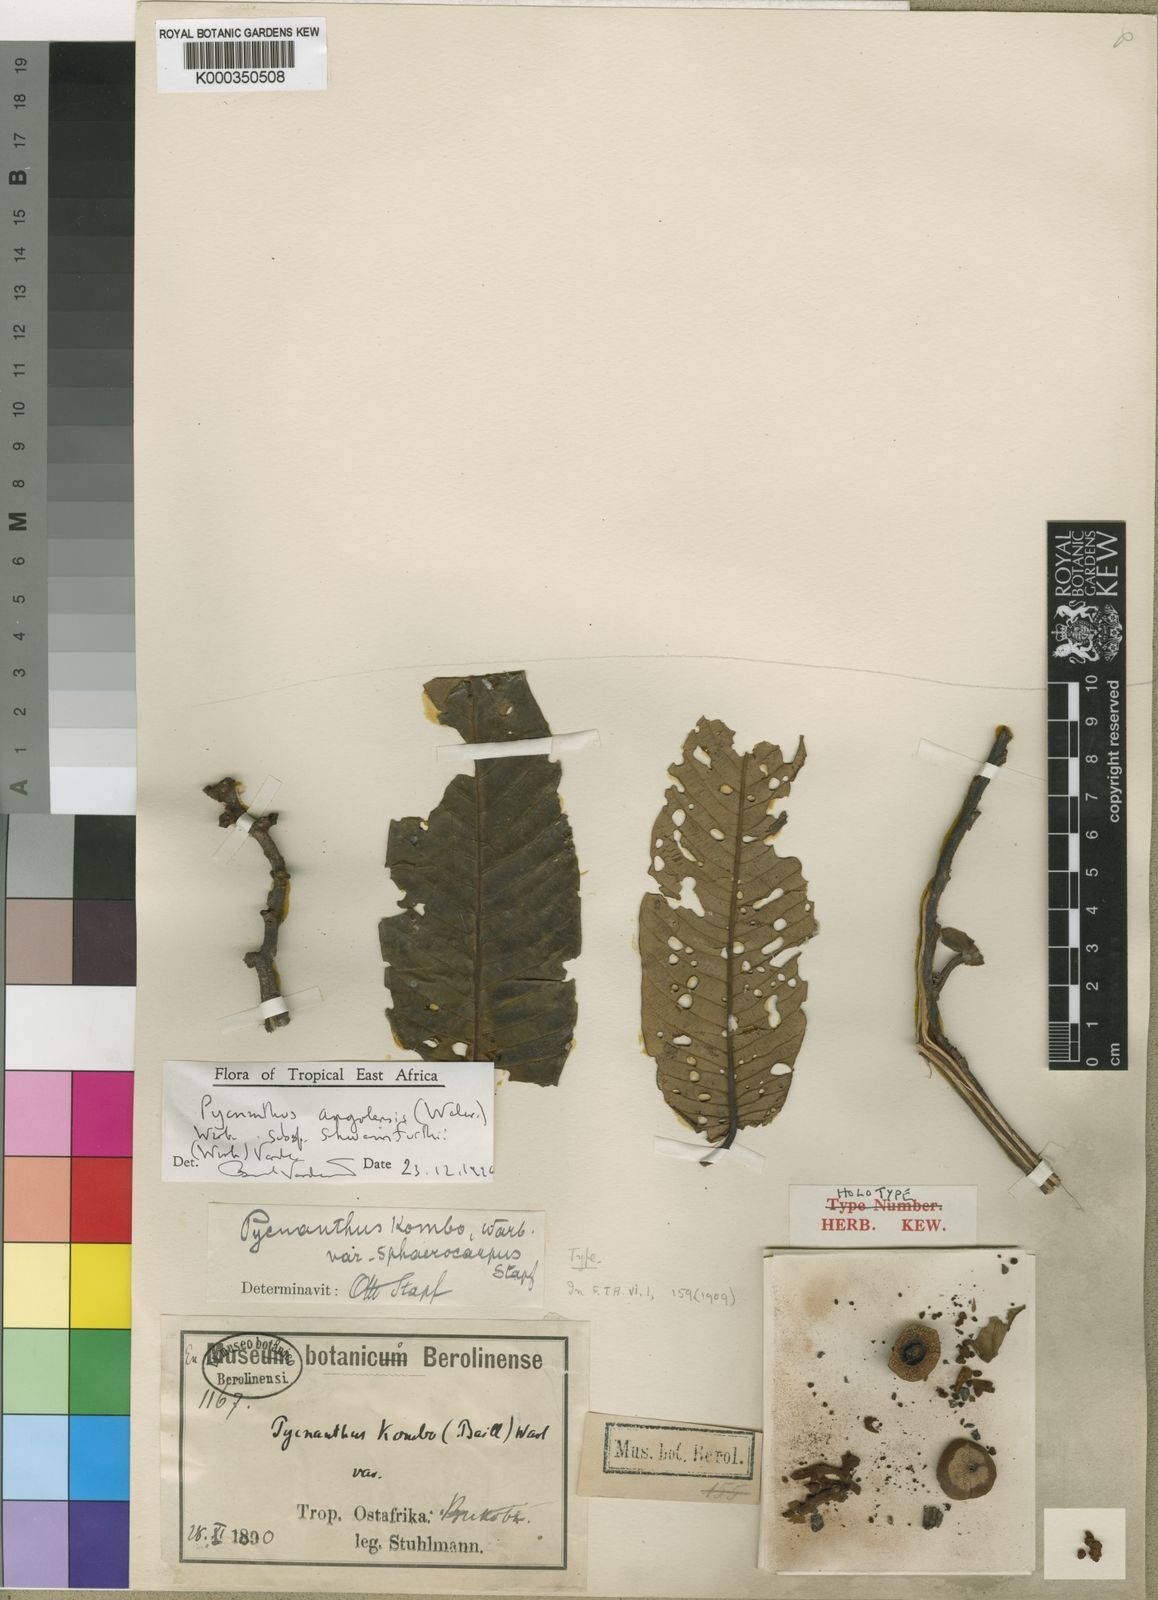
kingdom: Plantae
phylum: Tracheophyta
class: Magnoliopsida
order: Magnoliales
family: Myristicaceae
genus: Pycnanthus
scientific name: Pycnanthus angolensis
